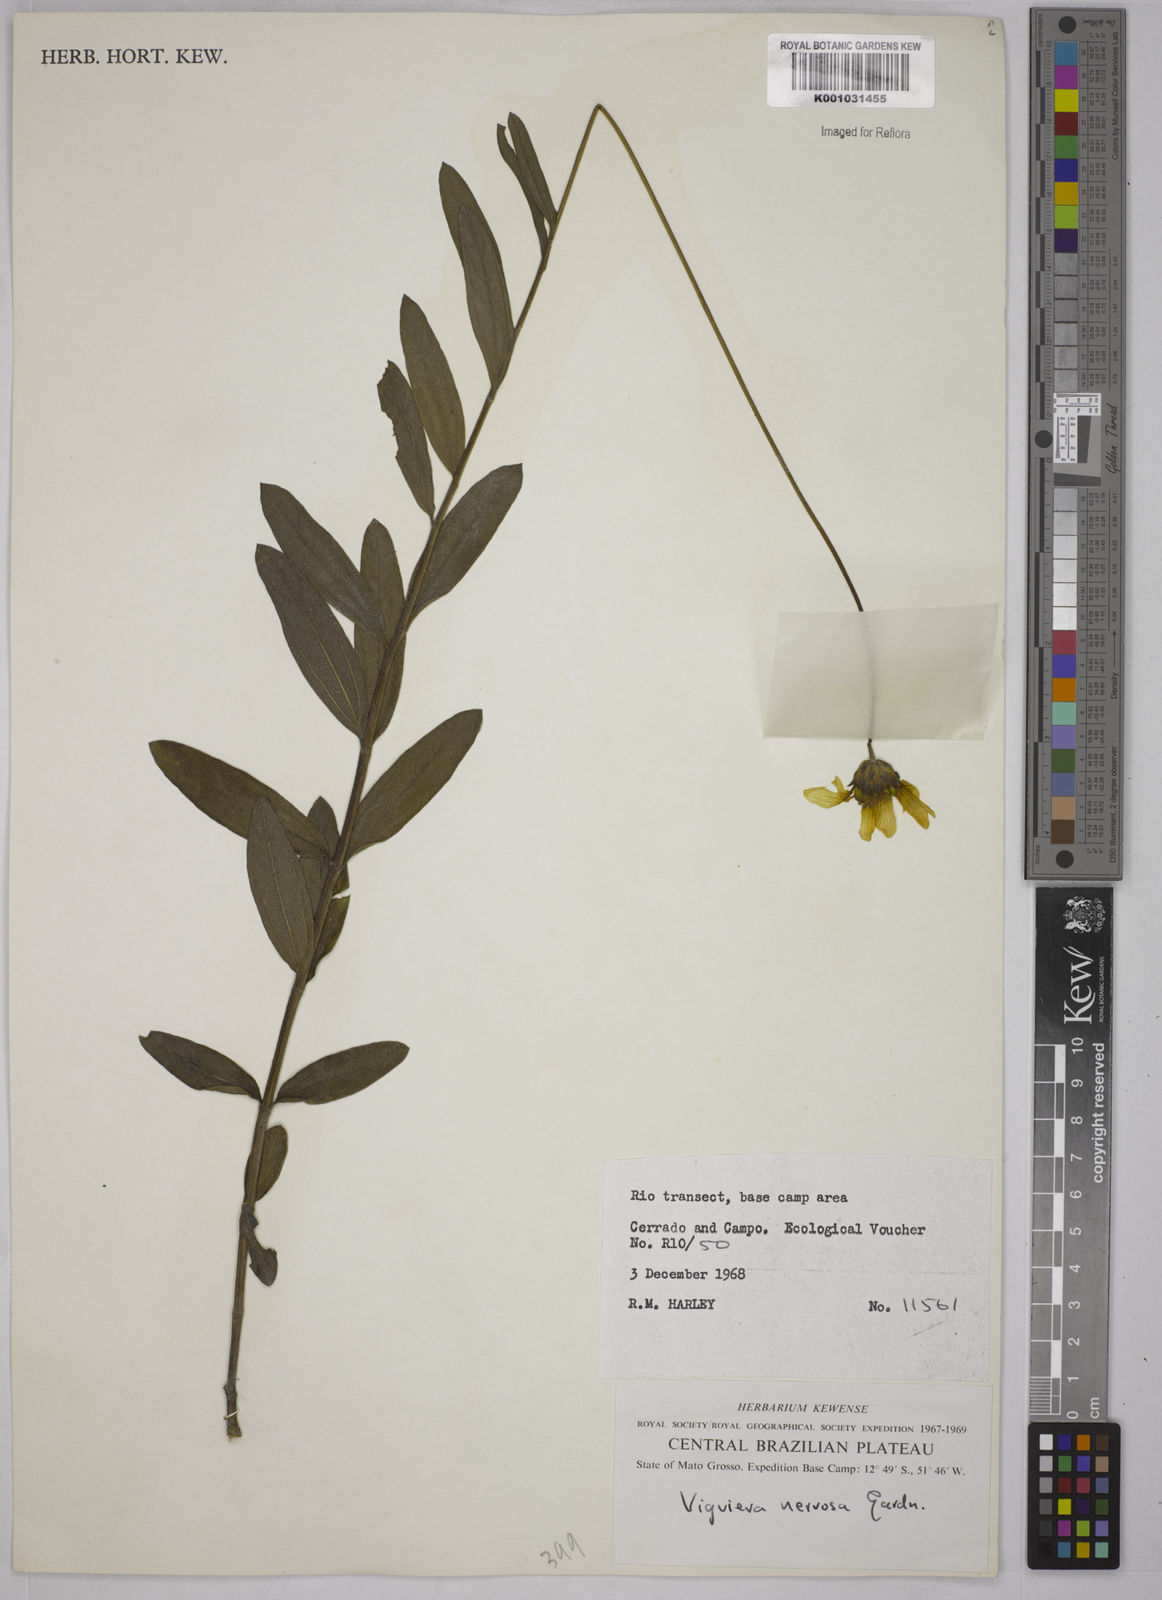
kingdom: Plantae
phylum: Tracheophyta
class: Magnoliopsida
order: Asterales
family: Asteraceae
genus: Aldama
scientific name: Aldama oblongifolia
